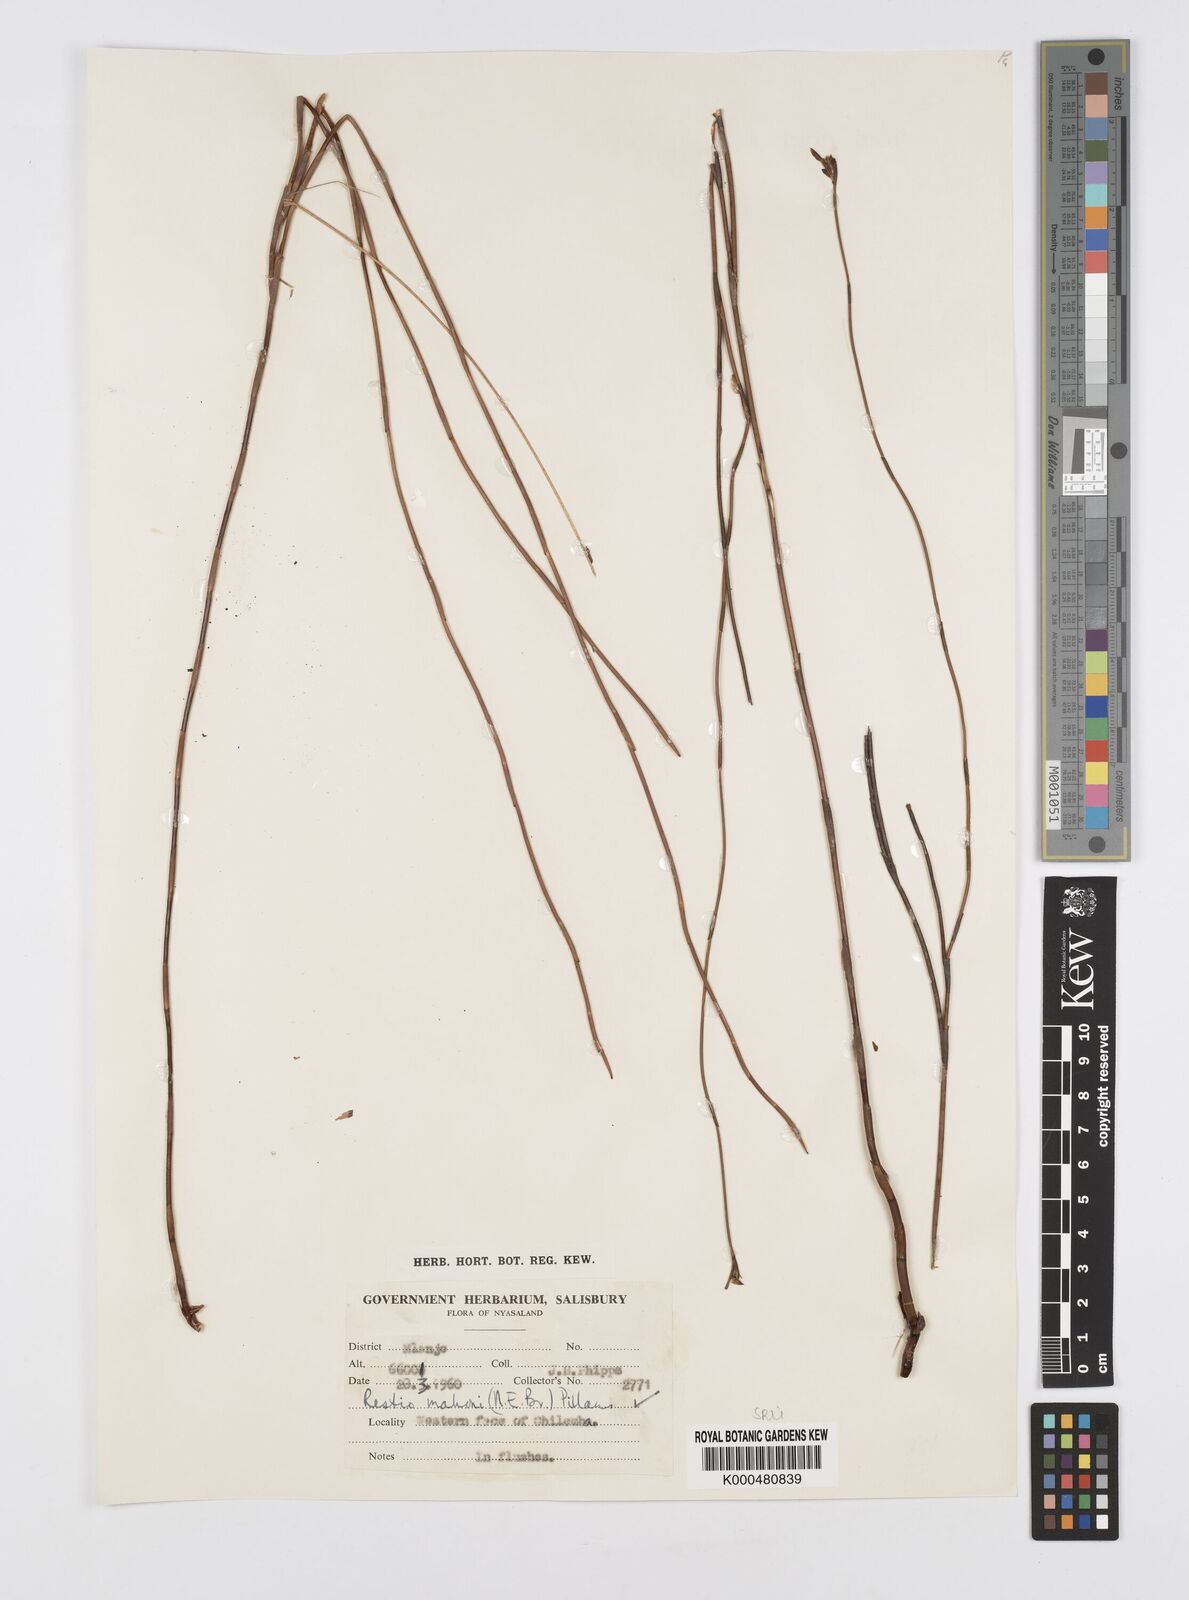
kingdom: Plantae
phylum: Tracheophyta
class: Liliopsida
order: Poales
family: Restionaceae
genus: Platycaulos
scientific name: Platycaulos mahonii
